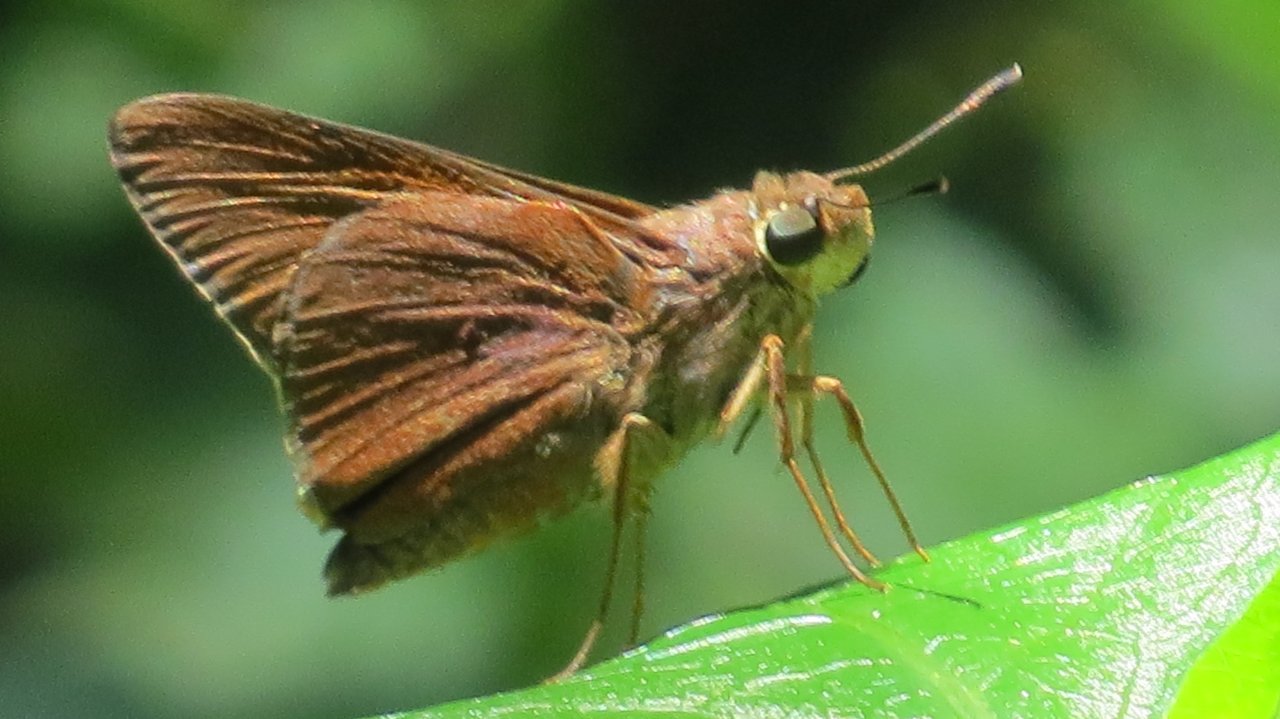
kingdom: Animalia
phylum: Arthropoda
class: Insecta
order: Lepidoptera
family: Hesperiidae
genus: Asbolis
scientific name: Asbolis capucinus
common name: Monk Skipper
